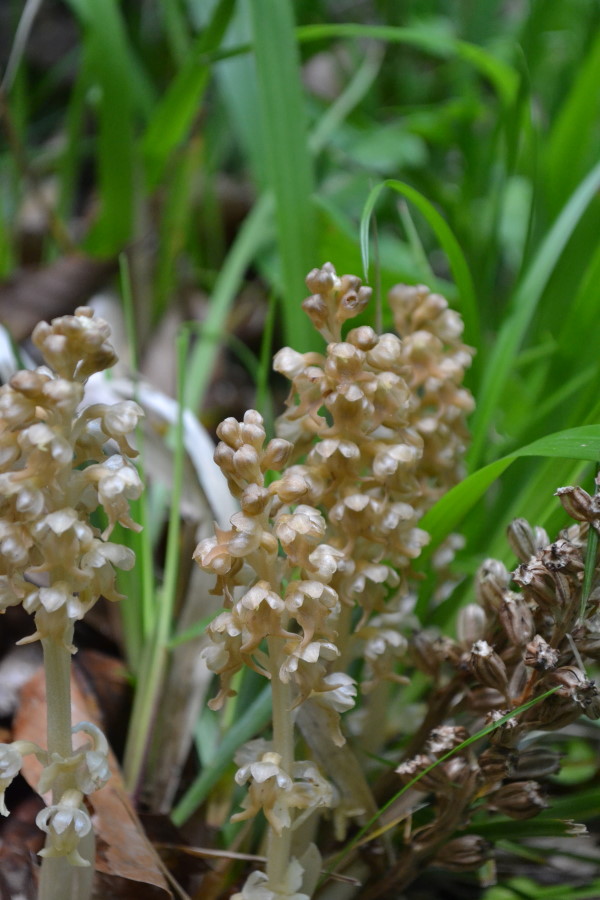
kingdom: Plantae
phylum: Tracheophyta
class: Liliopsida
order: Asparagales
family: Orchidaceae
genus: Neottia
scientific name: Neottia
